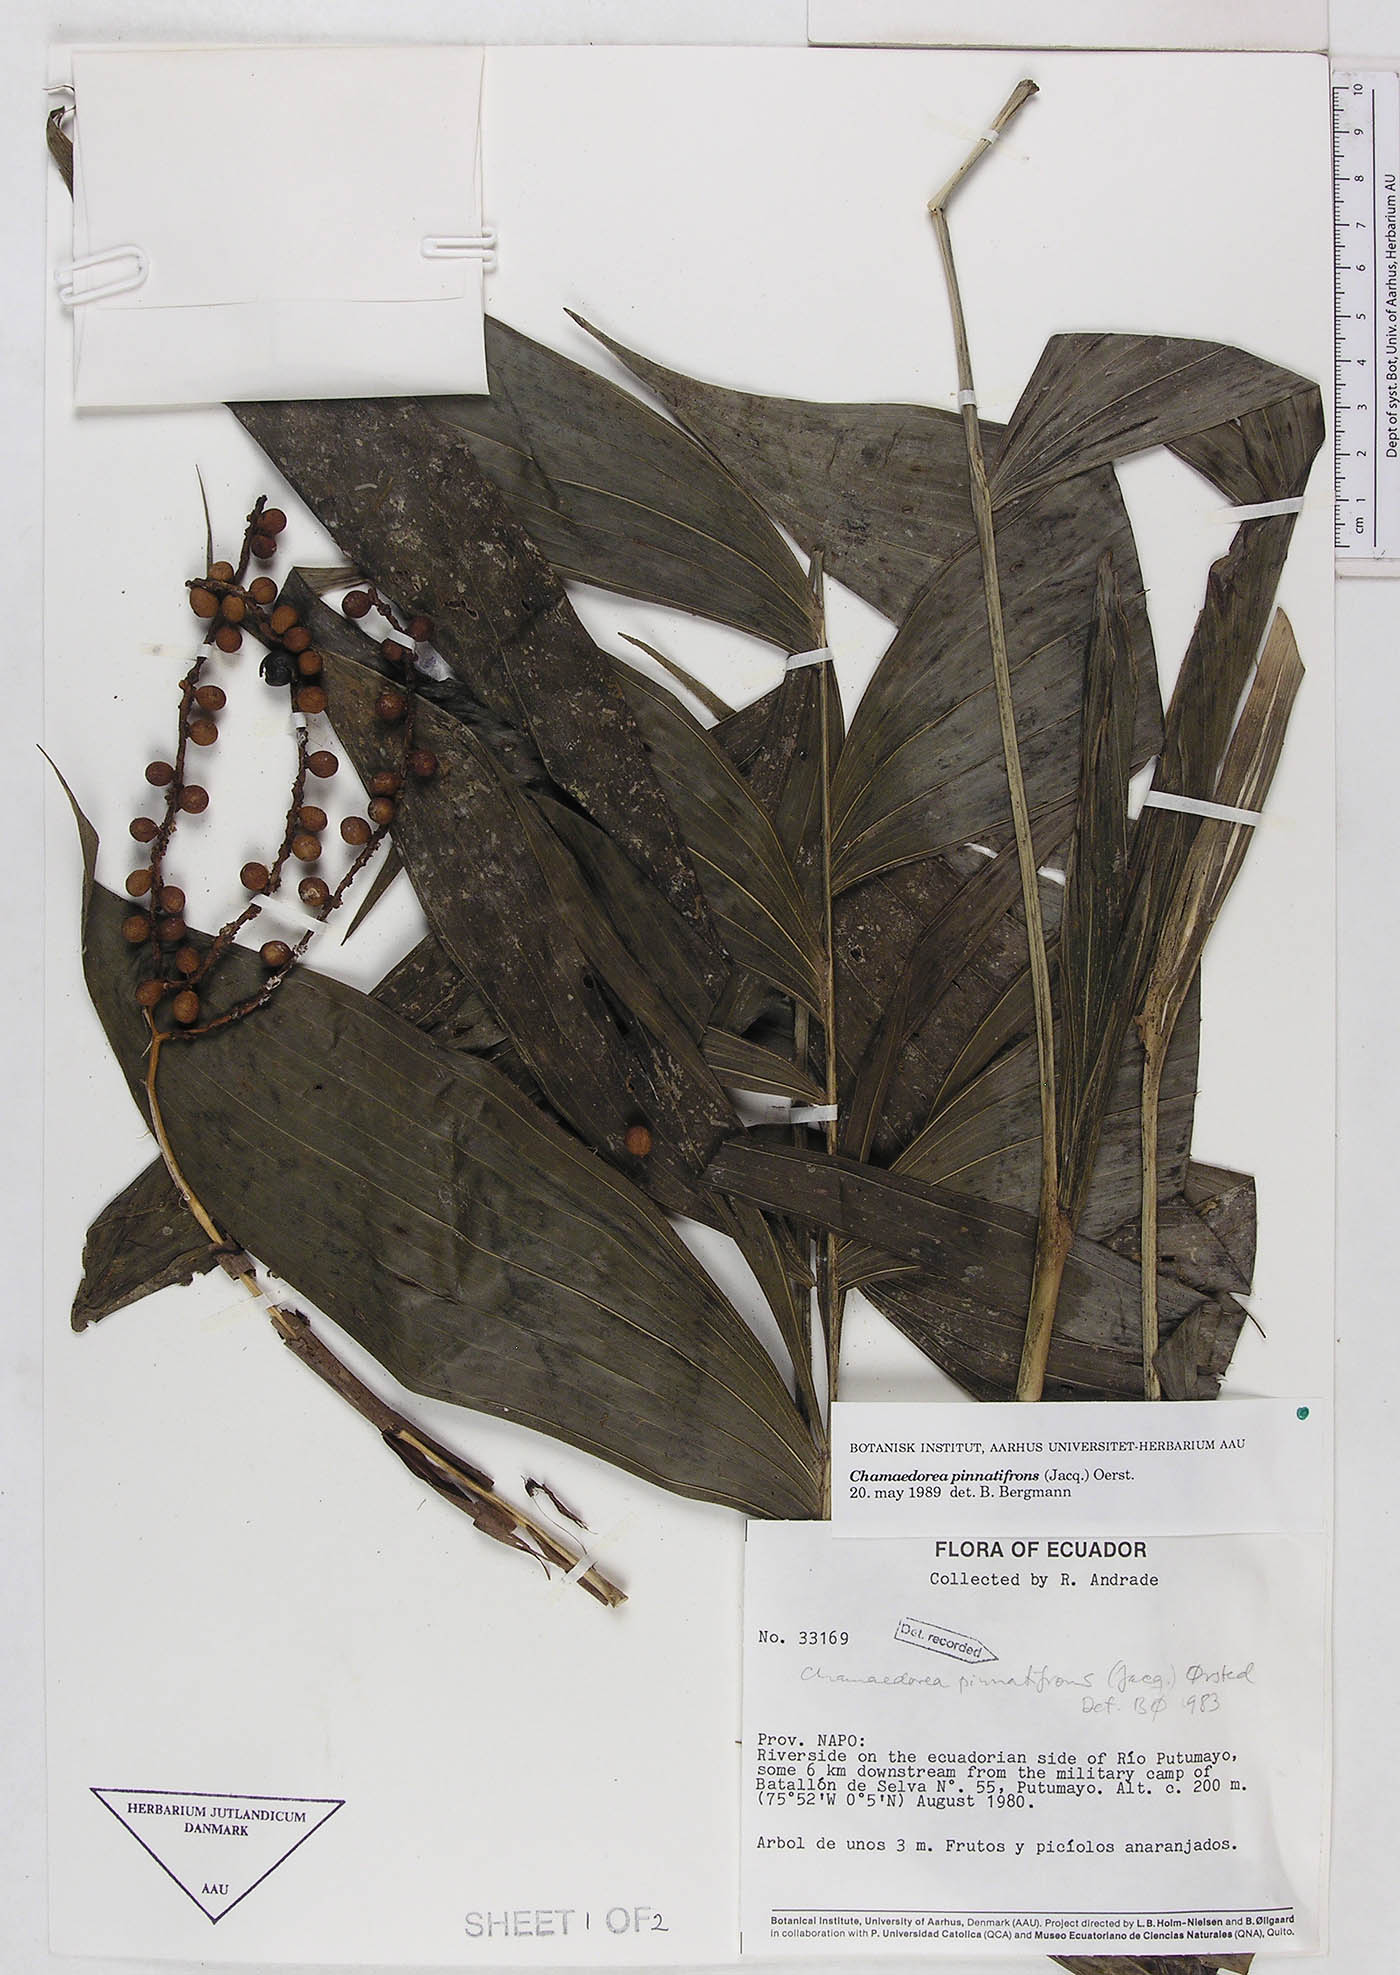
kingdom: Plantae
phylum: Tracheophyta
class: Liliopsida
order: Arecales
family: Arecaceae
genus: Chamaedorea
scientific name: Chamaedorea pinnatifrons
